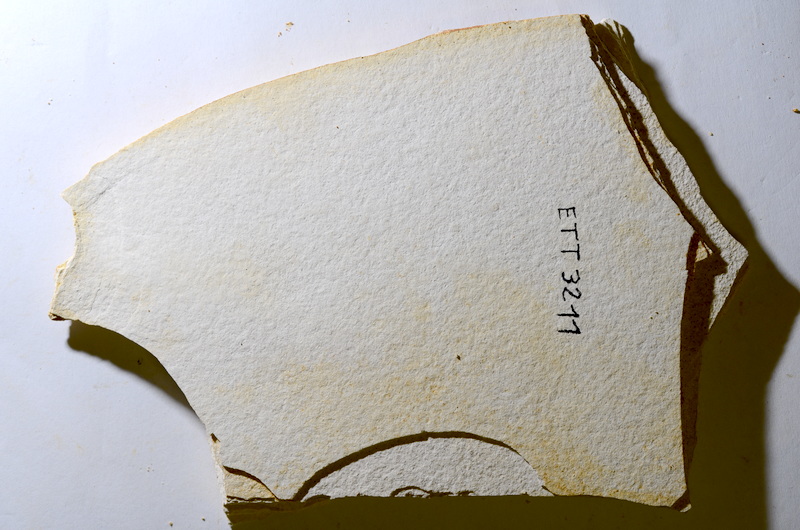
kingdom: Animalia
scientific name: Animalia
